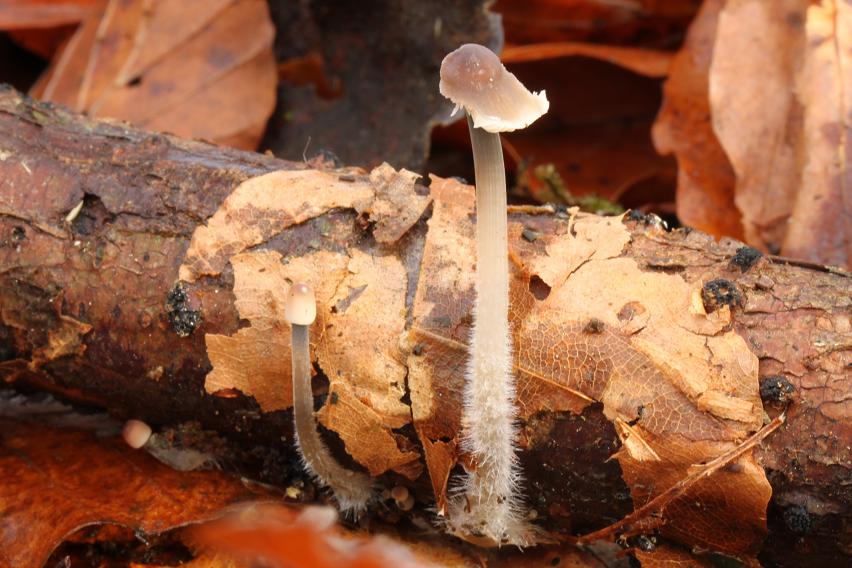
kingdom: Fungi
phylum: Basidiomycota
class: Agaricomycetes
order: Agaricales
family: Mycenaceae
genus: Mycena
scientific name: Mycena
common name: huesvamp
